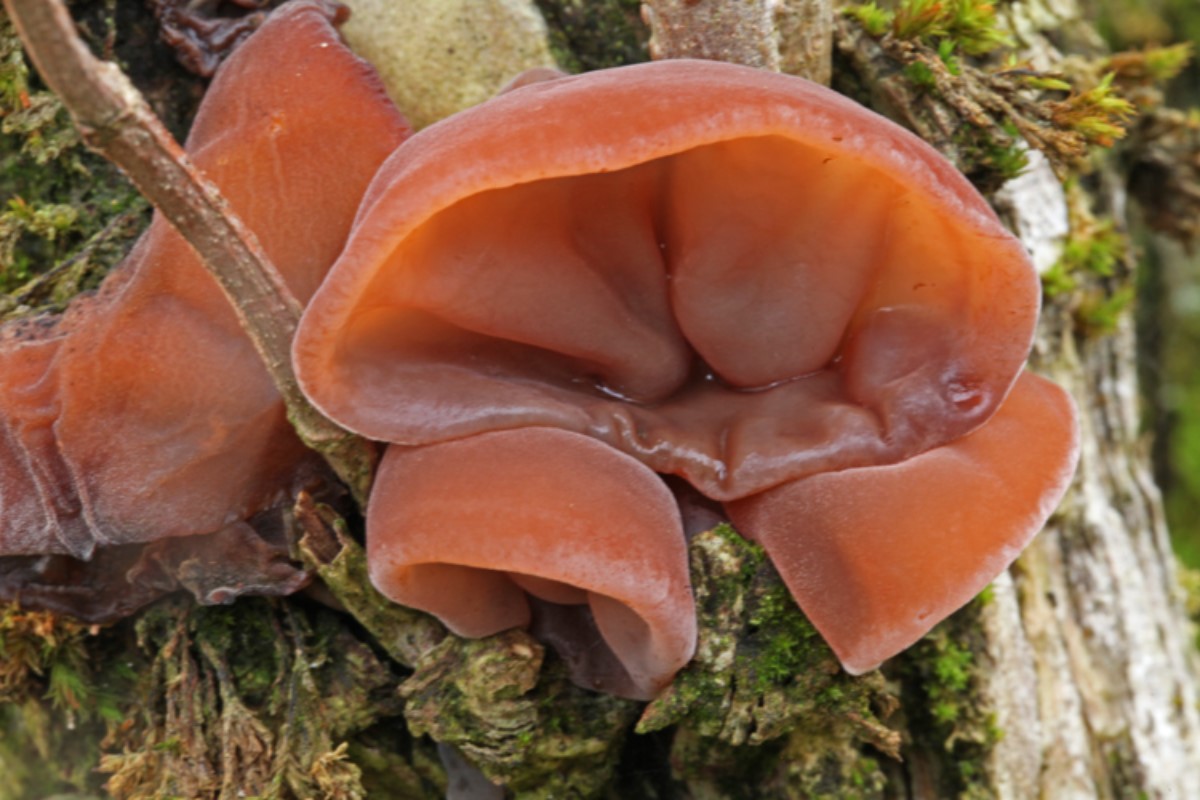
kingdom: Fungi
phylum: Basidiomycota
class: Agaricomycetes
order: Auriculariales
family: Auriculariaceae
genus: Auricularia
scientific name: Auricularia auricula-judae
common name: almindelig judasøre
